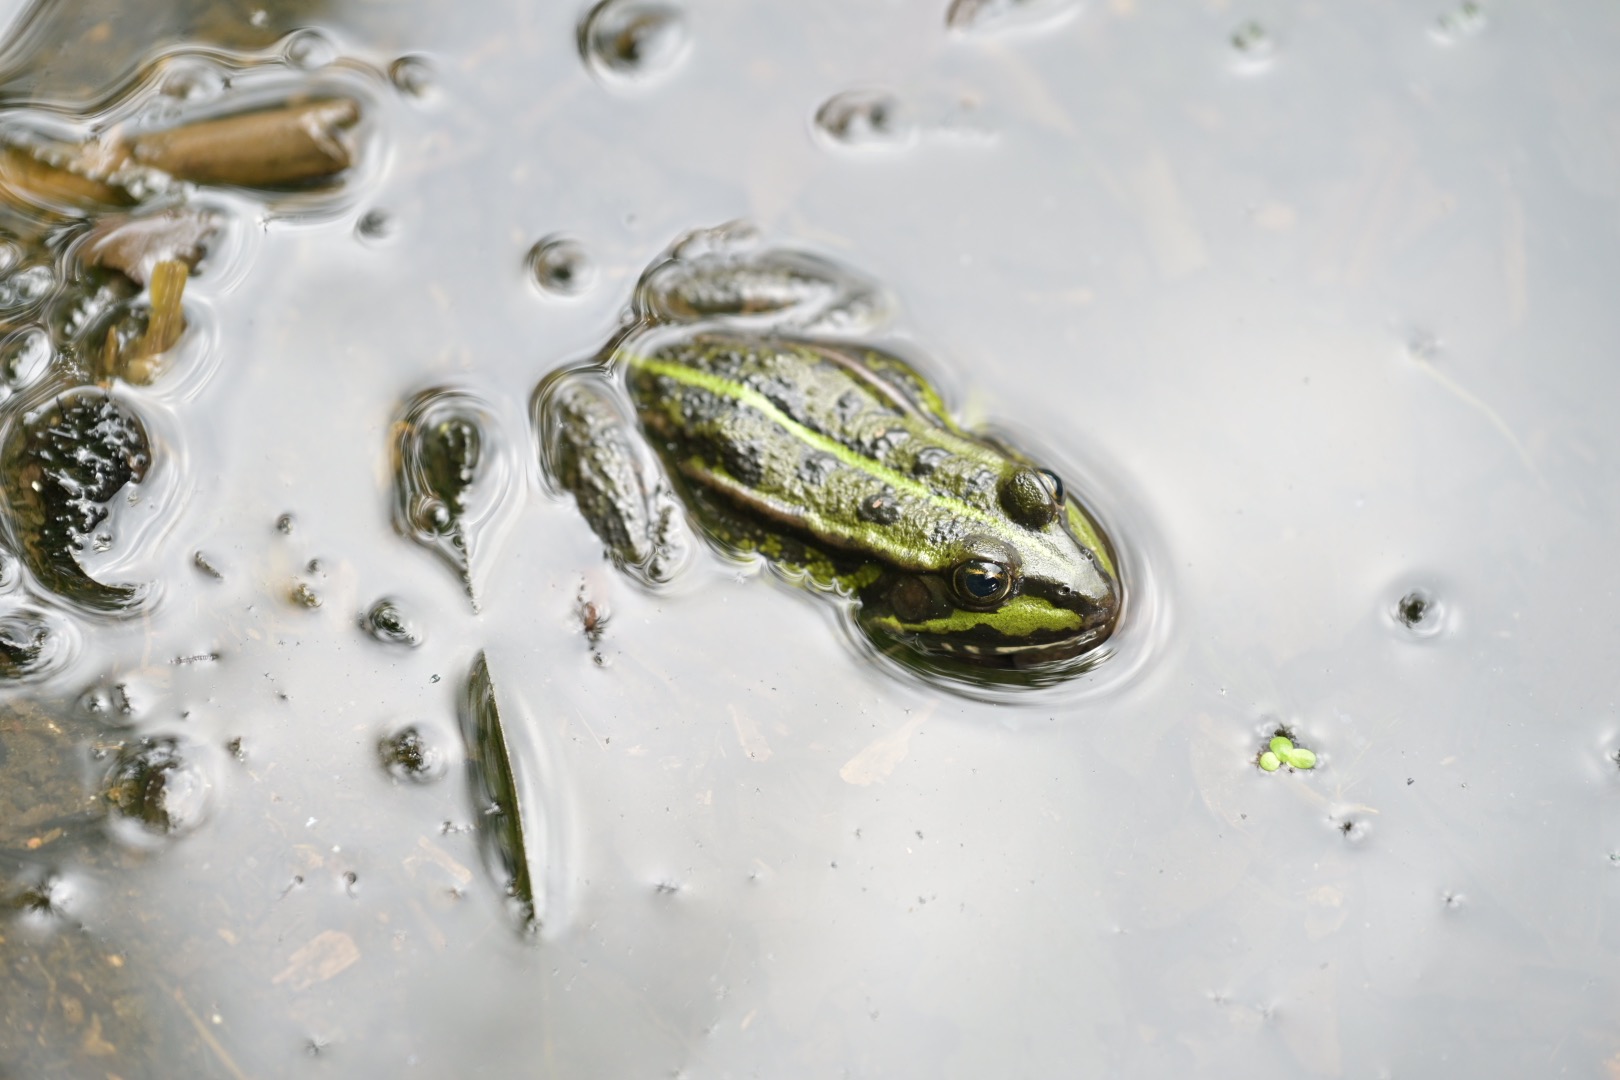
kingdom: Animalia
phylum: Chordata
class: Amphibia
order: Anura
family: Ranidae
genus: Pelophylax
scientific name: Pelophylax lessonae
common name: Grøn frø
